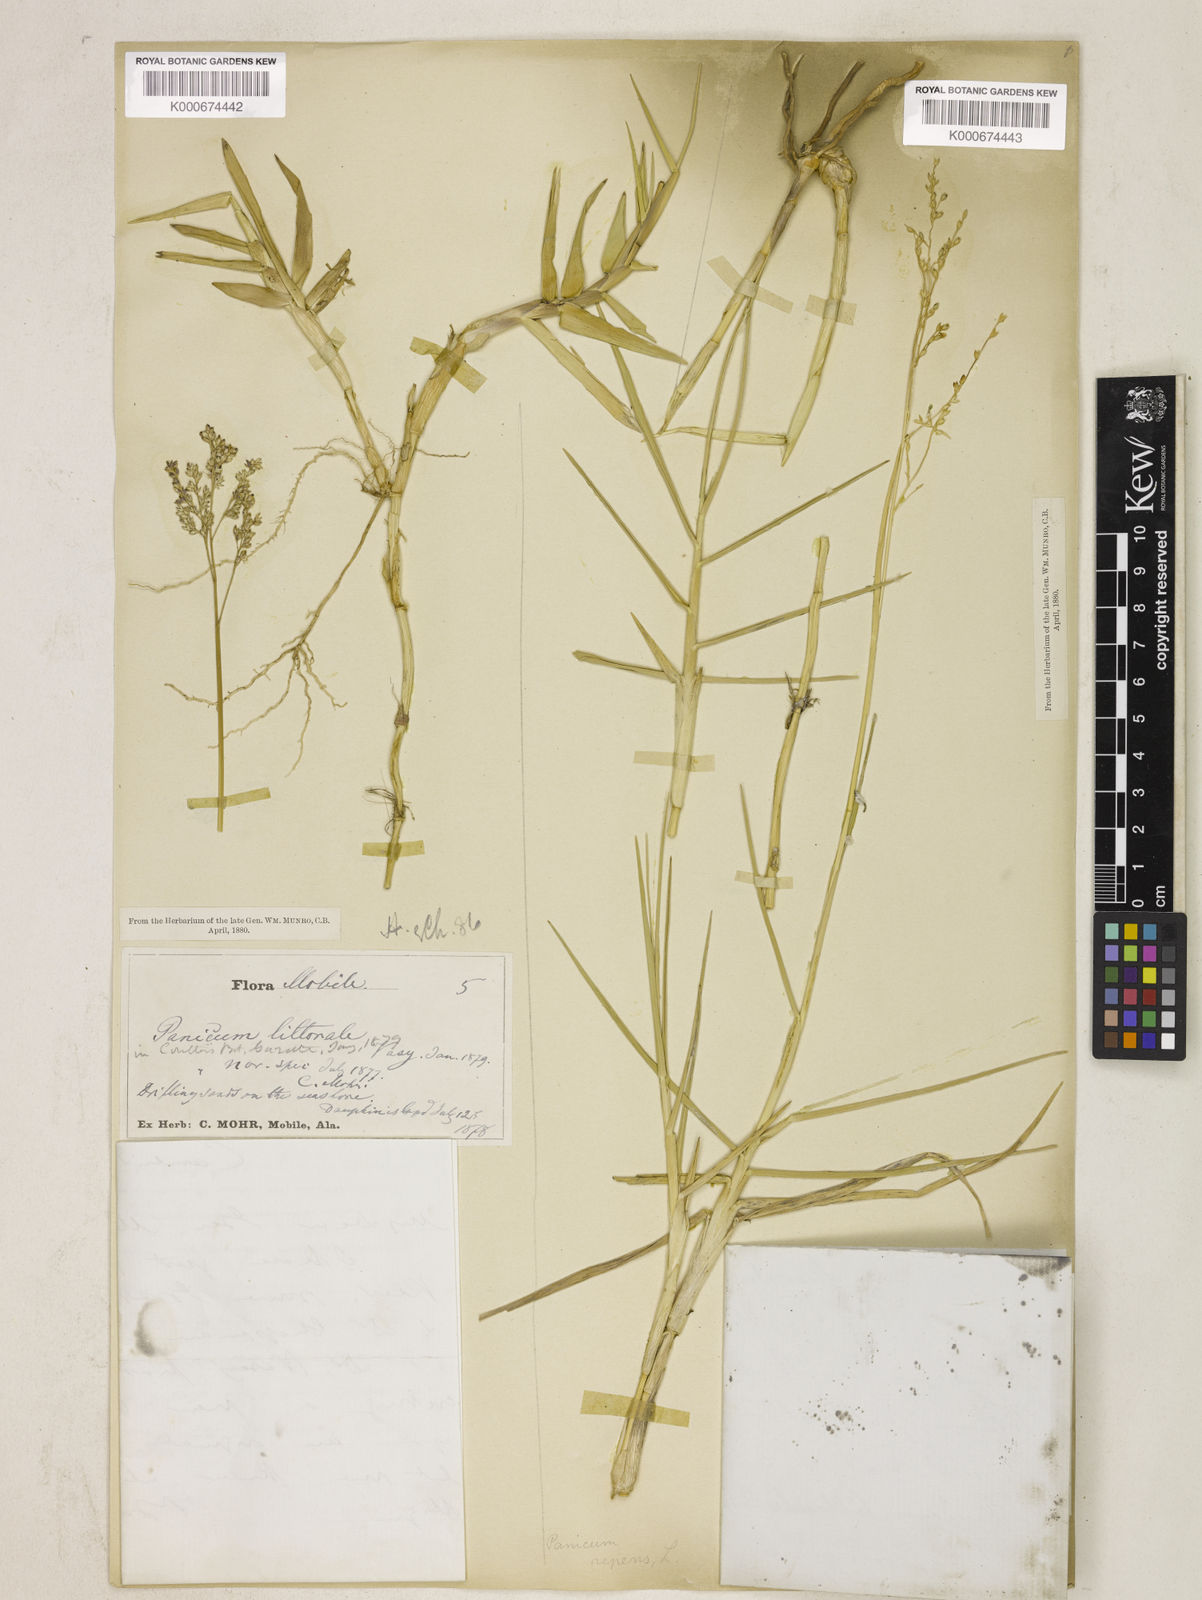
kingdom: Plantae
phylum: Tracheophyta
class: Liliopsida
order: Poales
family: Poaceae
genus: Panicum
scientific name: Panicum repens
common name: Torpedo grass
